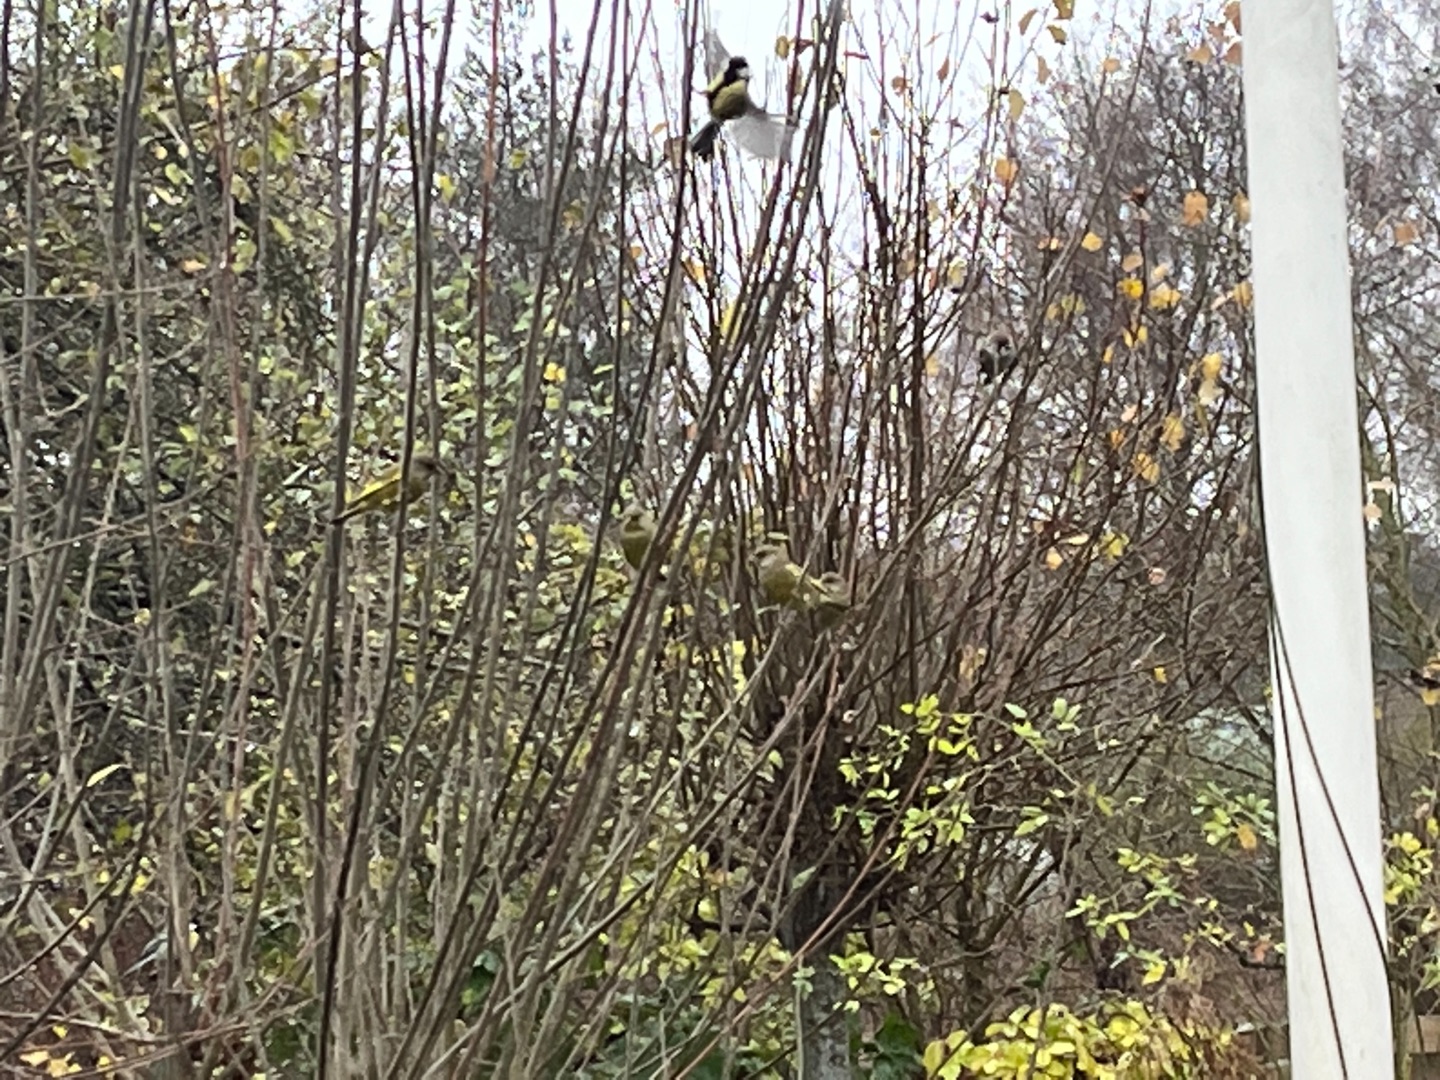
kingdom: Plantae
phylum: Tracheophyta
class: Liliopsida
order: Poales
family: Poaceae
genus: Chloris
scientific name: Chloris chloris
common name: Grønirisk
